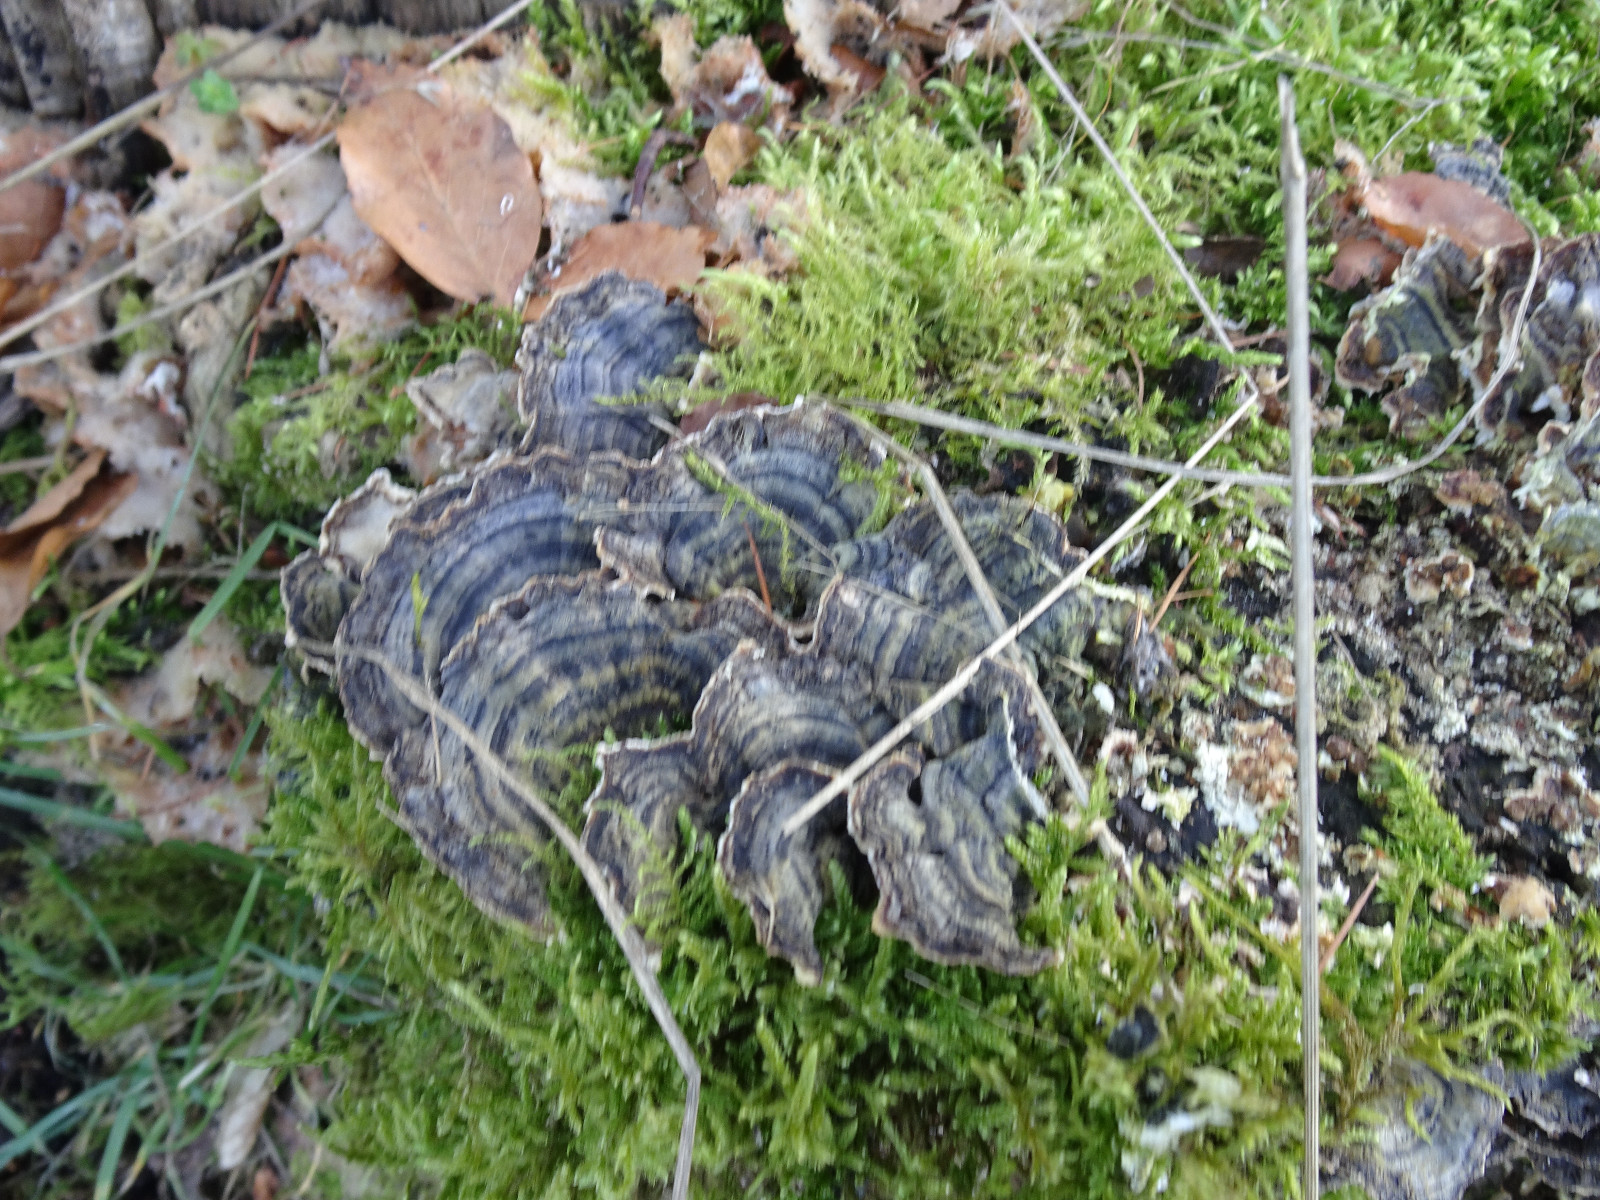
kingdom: Fungi
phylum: Basidiomycota
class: Agaricomycetes
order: Polyporales
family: Polyporaceae
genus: Trametes
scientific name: Trametes versicolor
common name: broget læderporesvamp
